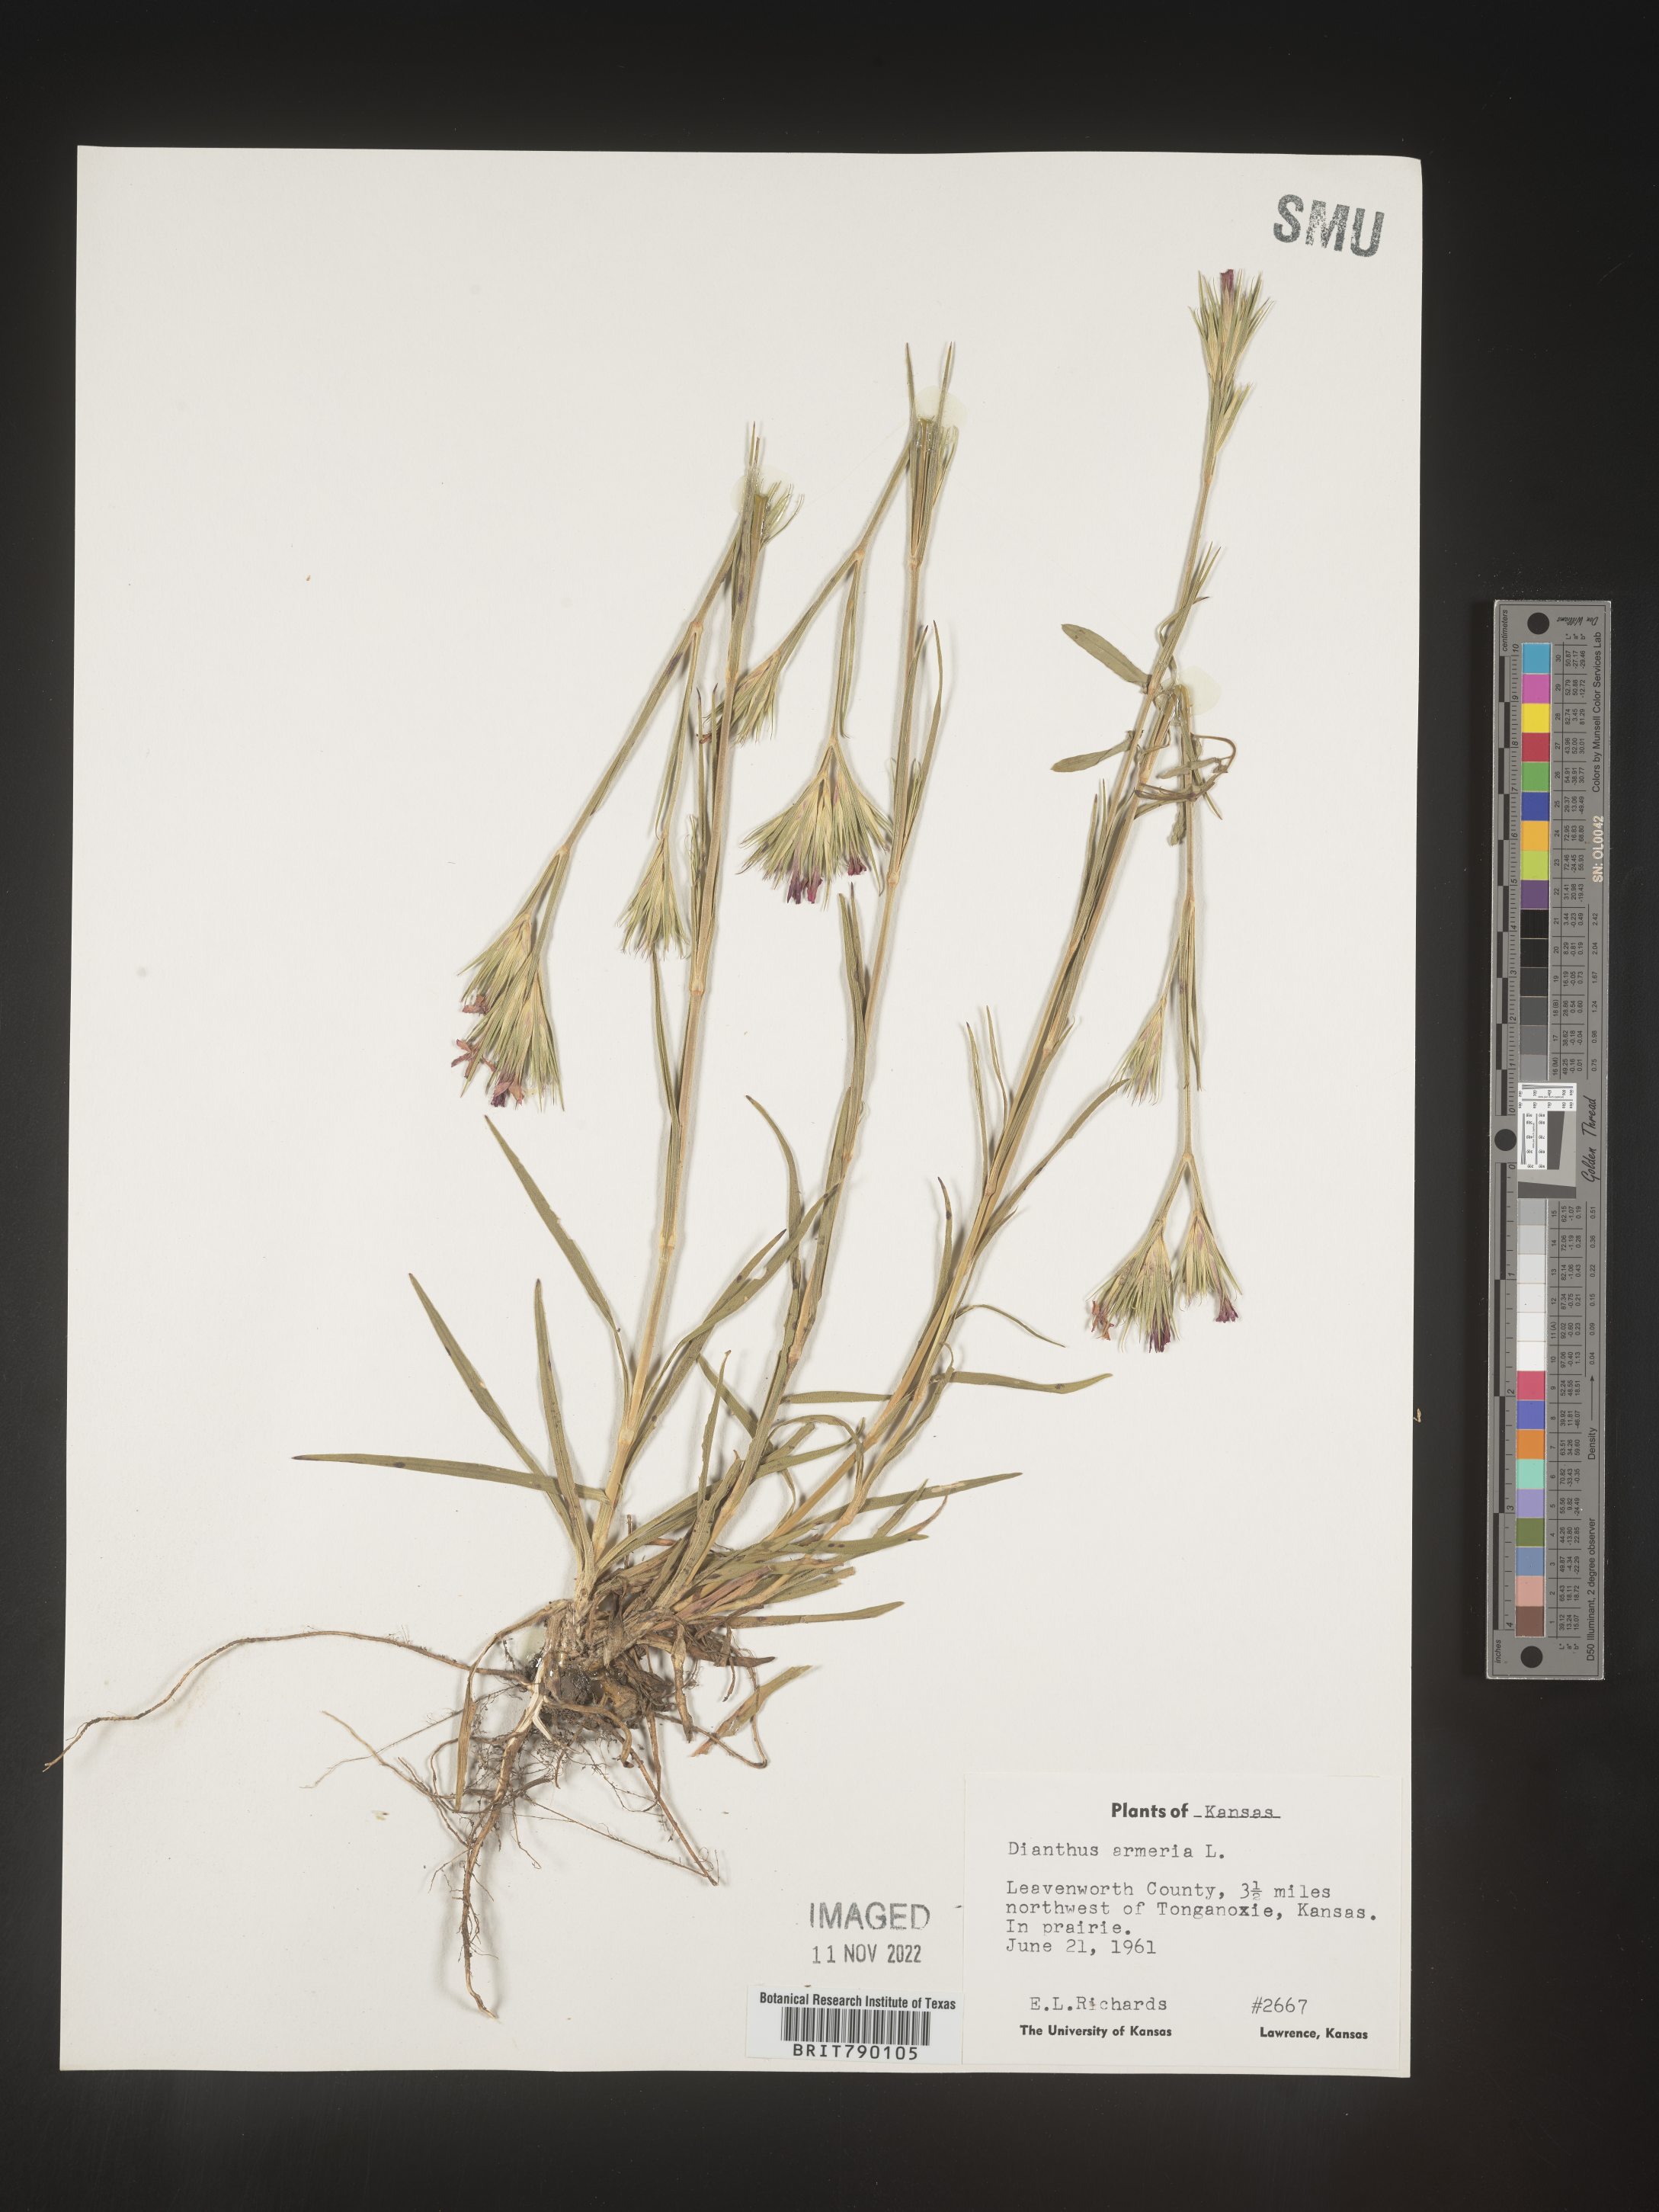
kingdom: Plantae
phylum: Tracheophyta
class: Magnoliopsida
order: Caryophyllales
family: Caryophyllaceae
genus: Dianthus
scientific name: Dianthus armeria
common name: Deptford pink
